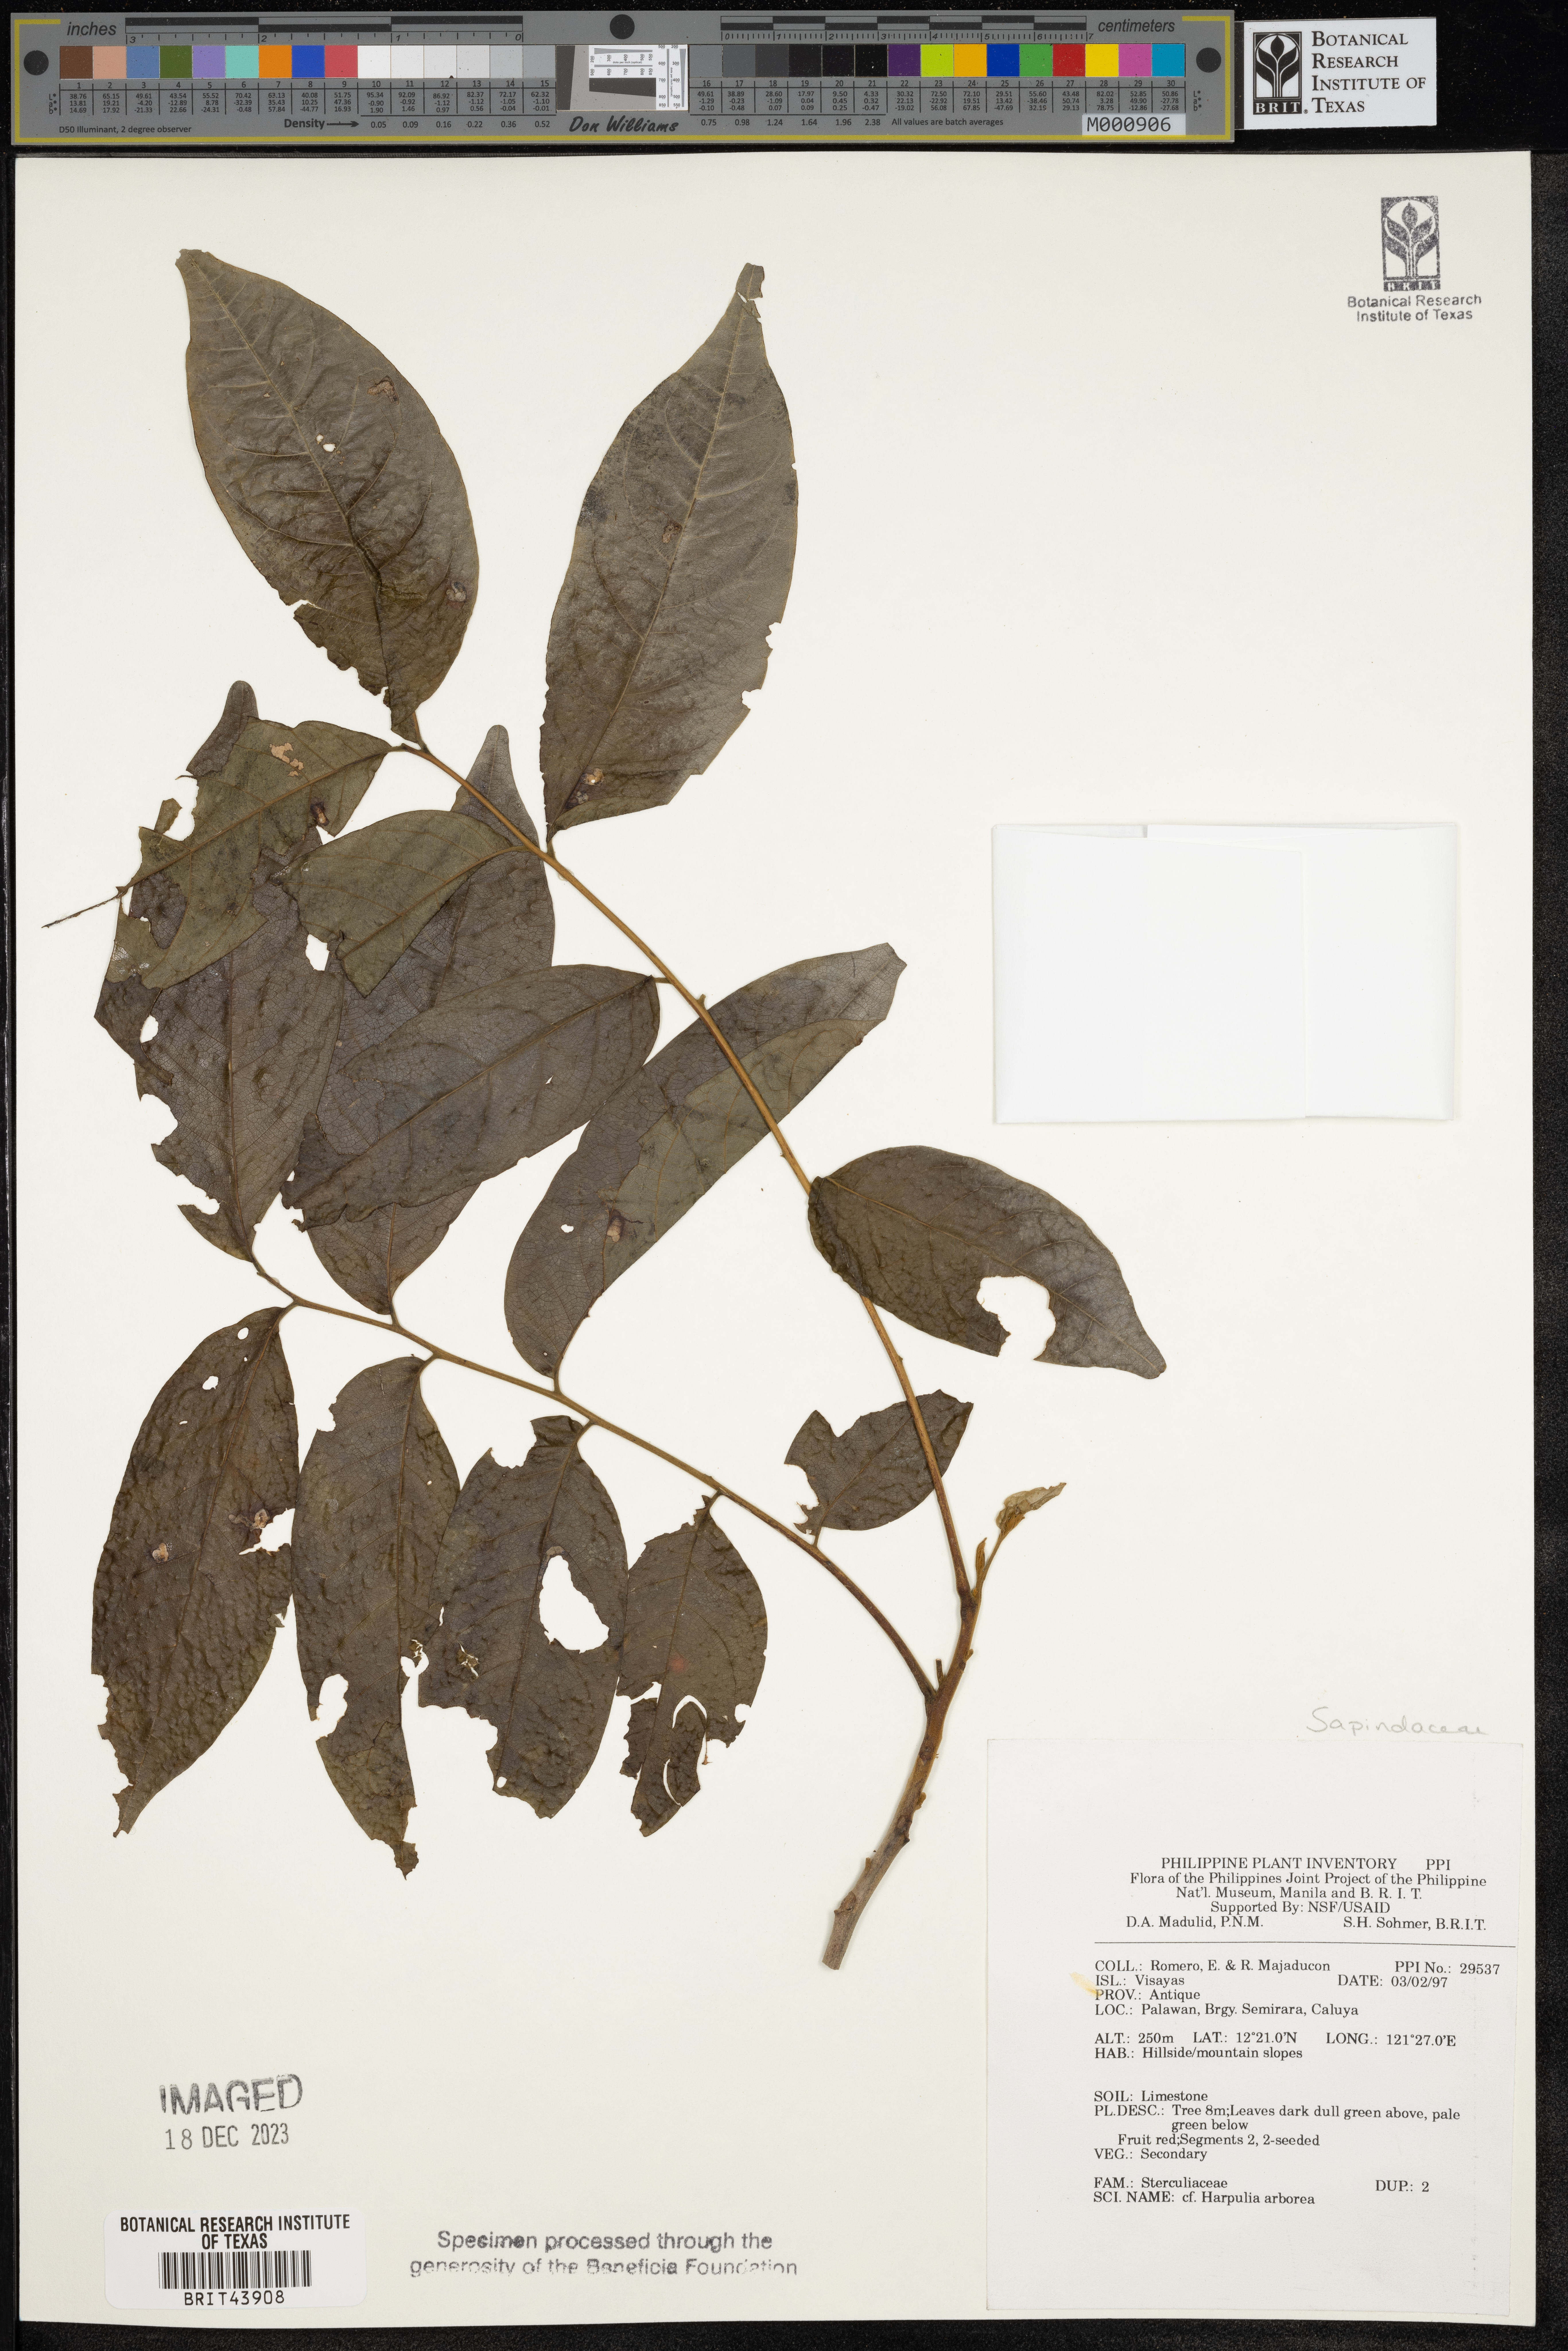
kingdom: Plantae
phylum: Tracheophyta
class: Magnoliopsida
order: Sapindales
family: Sapindaceae
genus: Harpullia
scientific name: Harpullia arborea
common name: Tulip-wood tree
